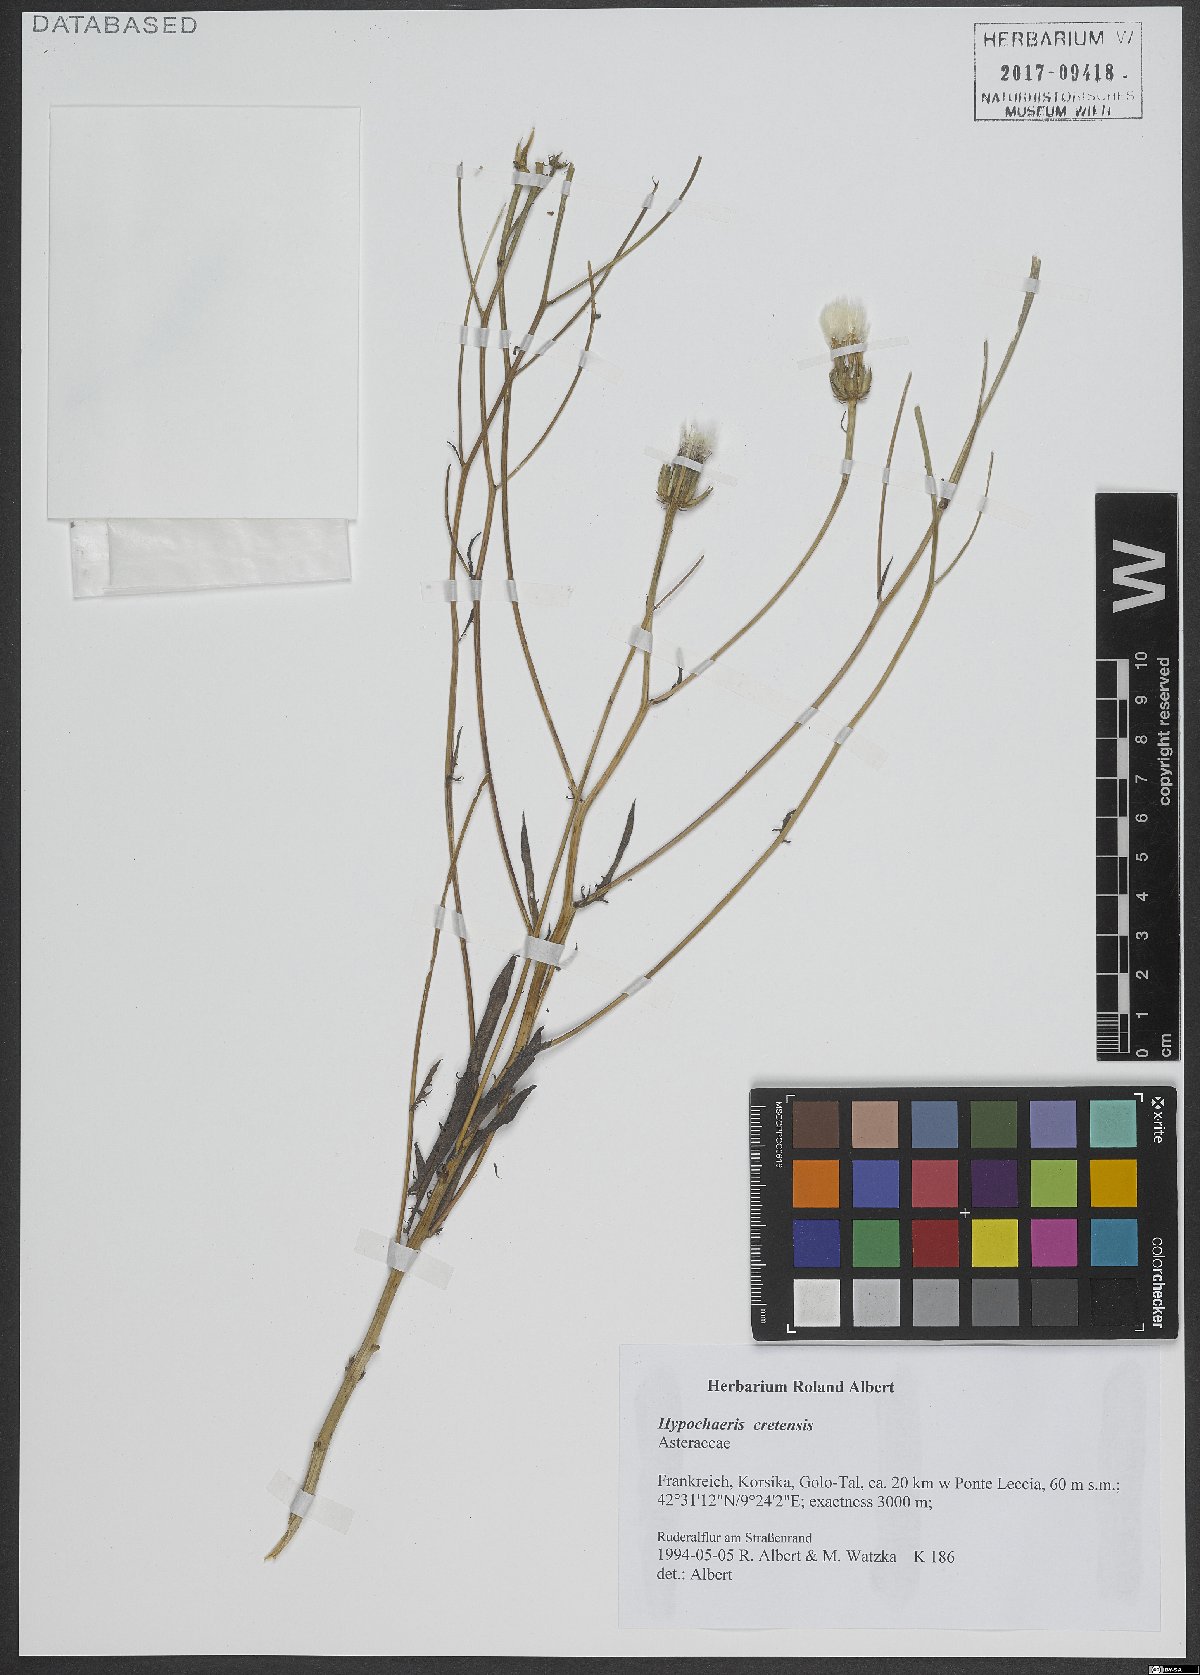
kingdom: Plantae
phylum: Tracheophyta
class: Magnoliopsida
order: Asterales
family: Asteraceae
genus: Hypochaeris
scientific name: Hypochaeris cretensis
